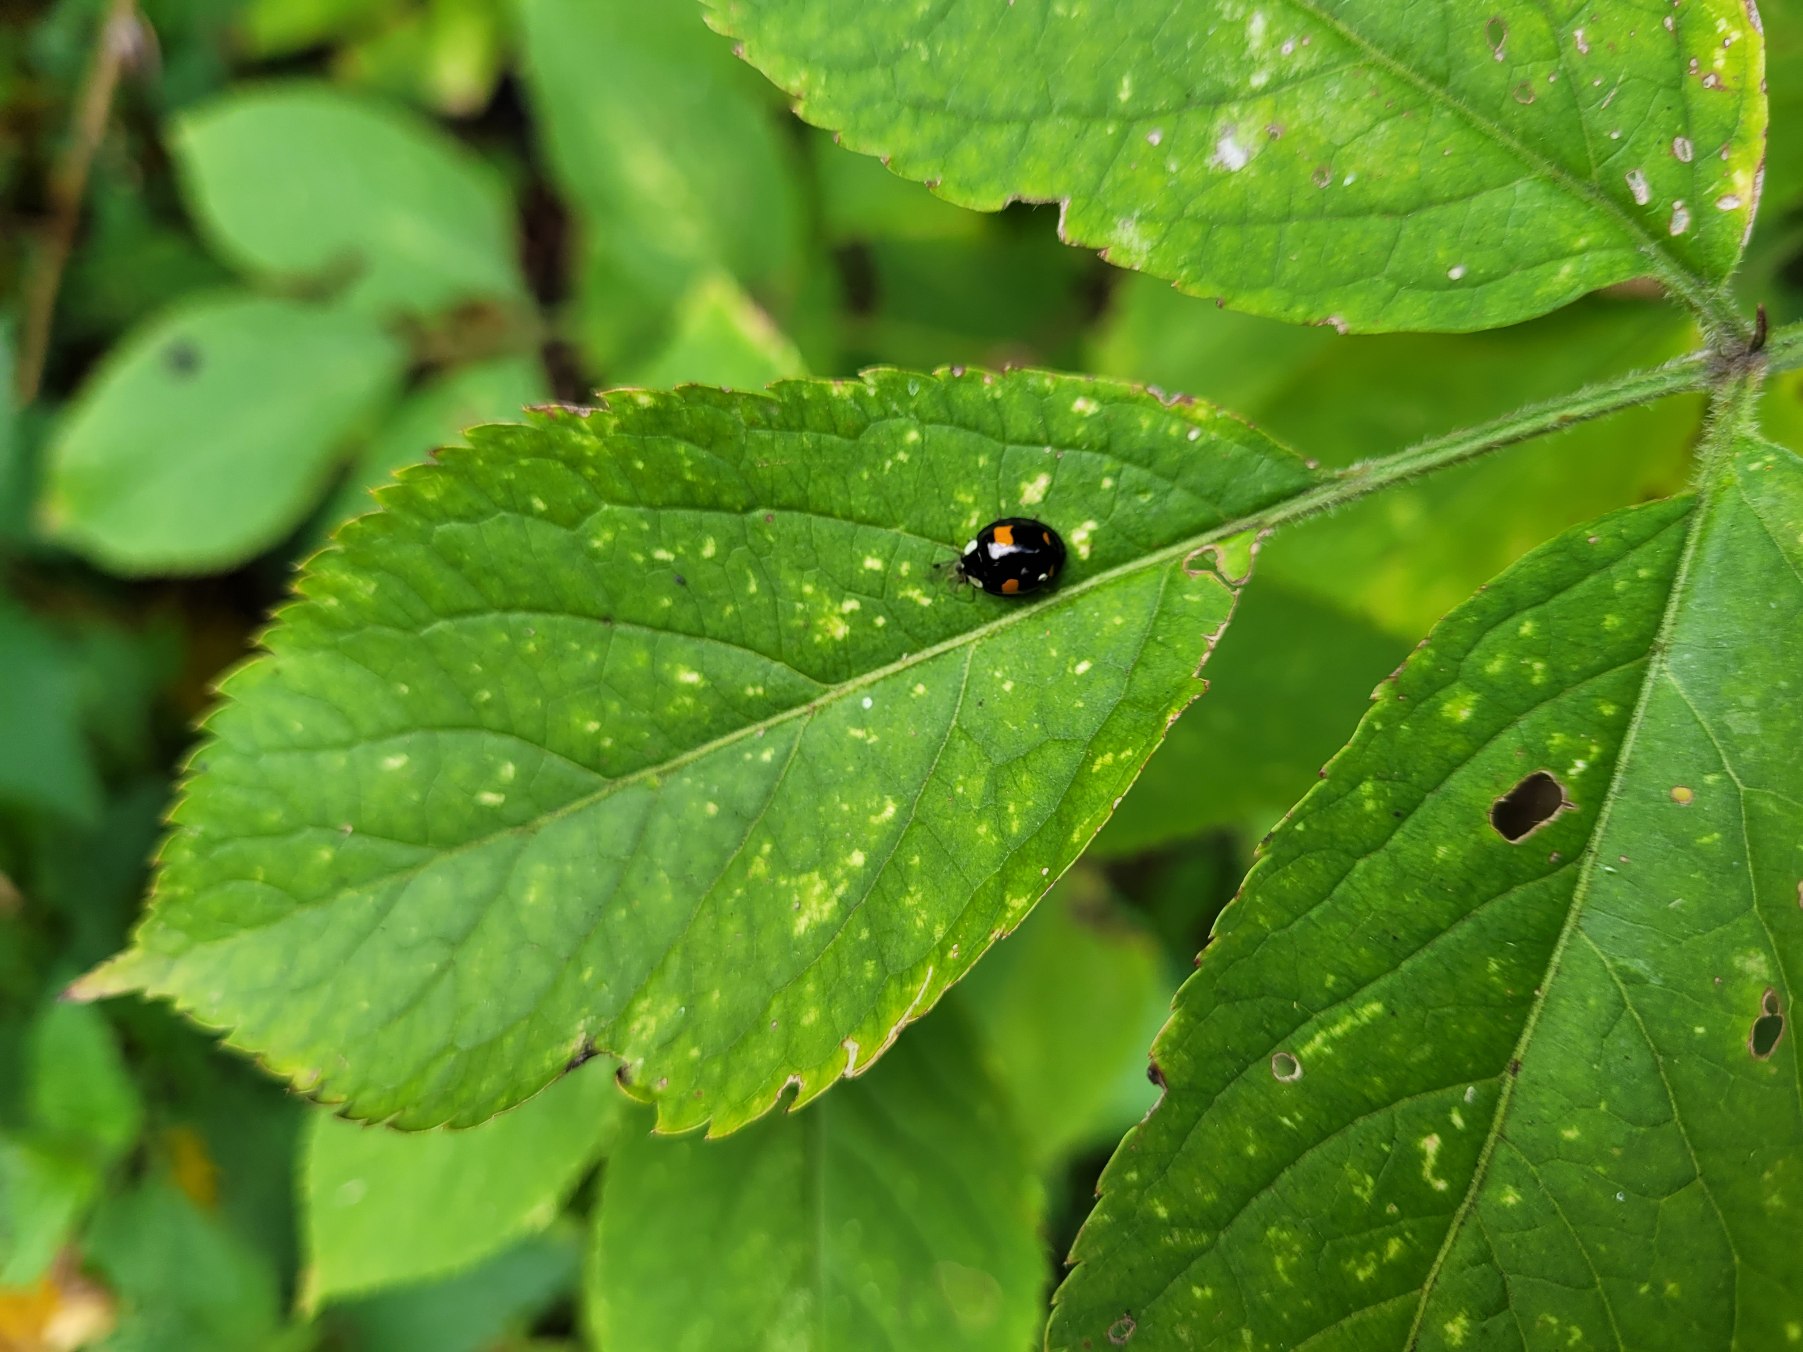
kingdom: Animalia
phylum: Arthropoda
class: Insecta
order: Coleoptera
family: Coccinellidae
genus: Harmonia
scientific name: Harmonia axyridis
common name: Harlekinmariehøne
